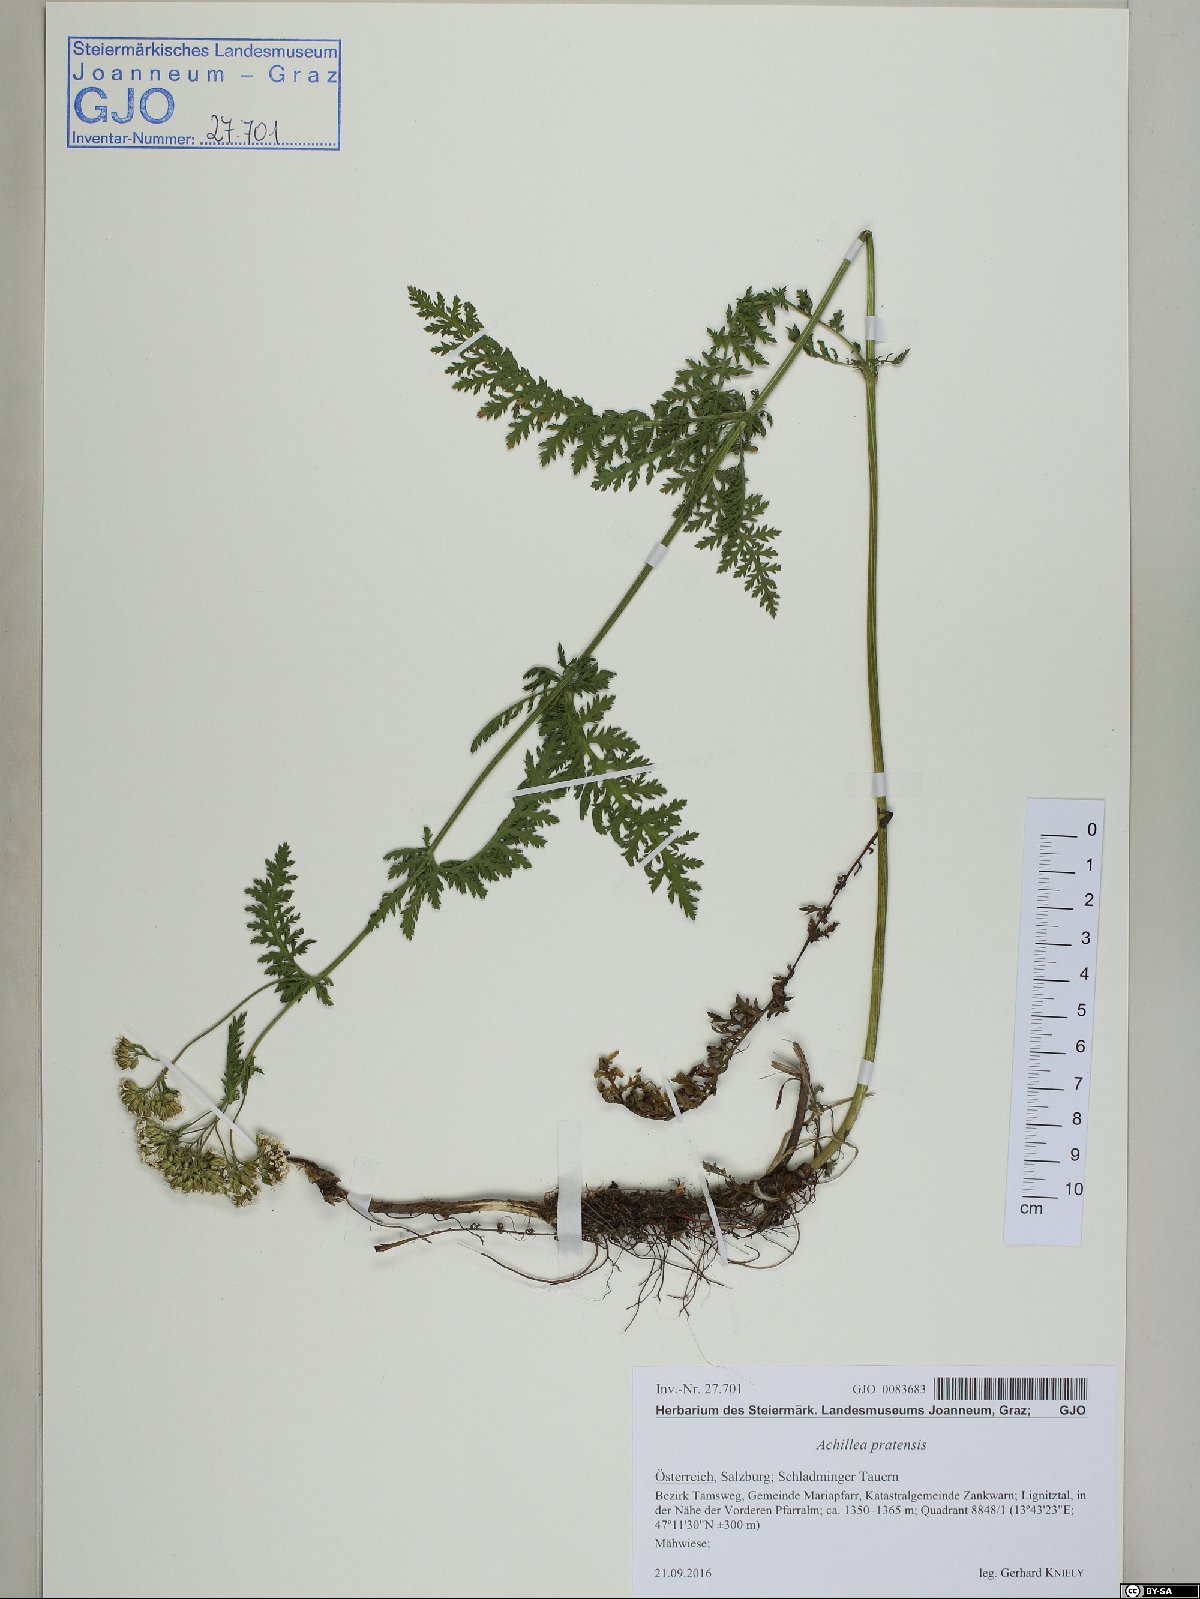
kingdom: Plantae
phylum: Tracheophyta
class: Magnoliopsida
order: Asterales
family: Asteraceae
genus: Achillea
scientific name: Achillea pratensis
